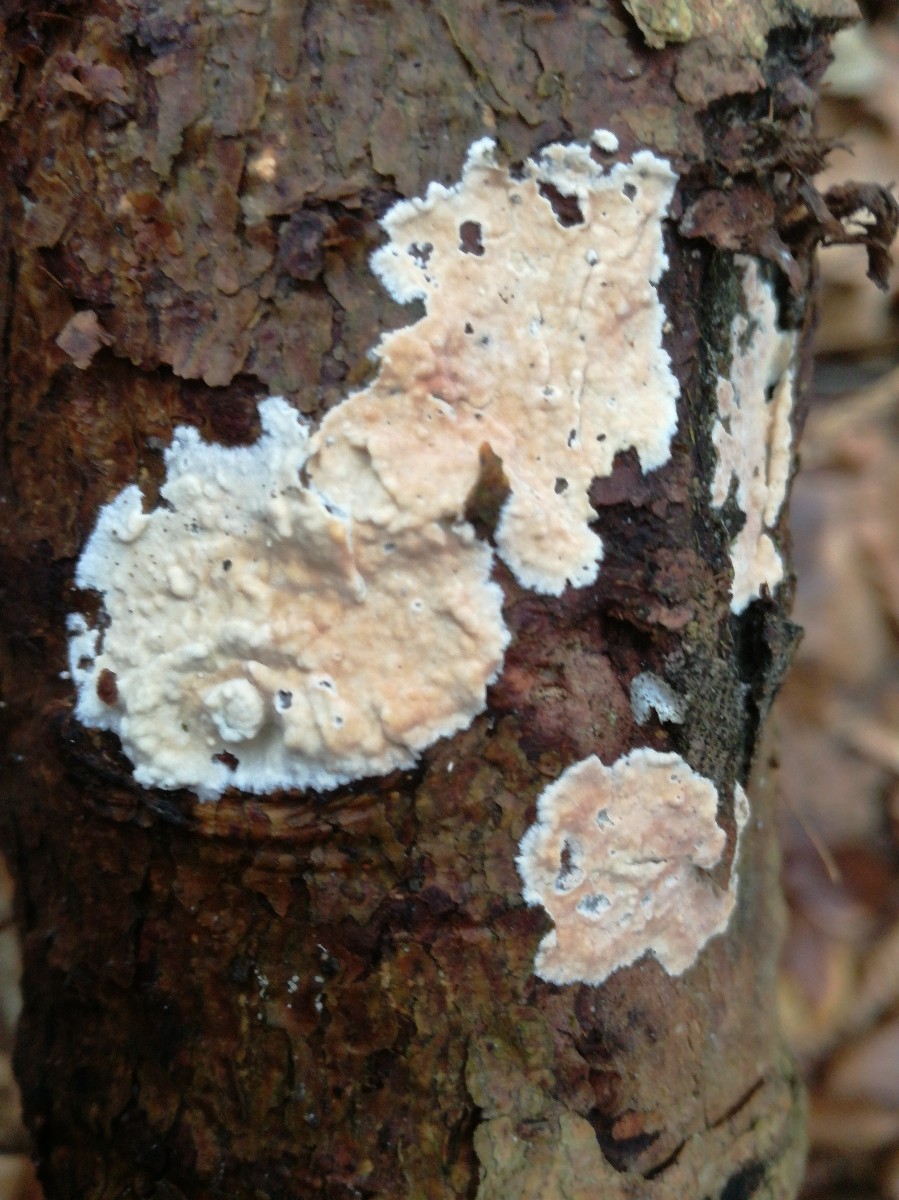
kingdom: Fungi
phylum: Basidiomycota
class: Agaricomycetes
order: Agaricales
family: Physalacriaceae
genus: Cylindrobasidium
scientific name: Cylindrobasidium evolvens
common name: sprækkehinde
